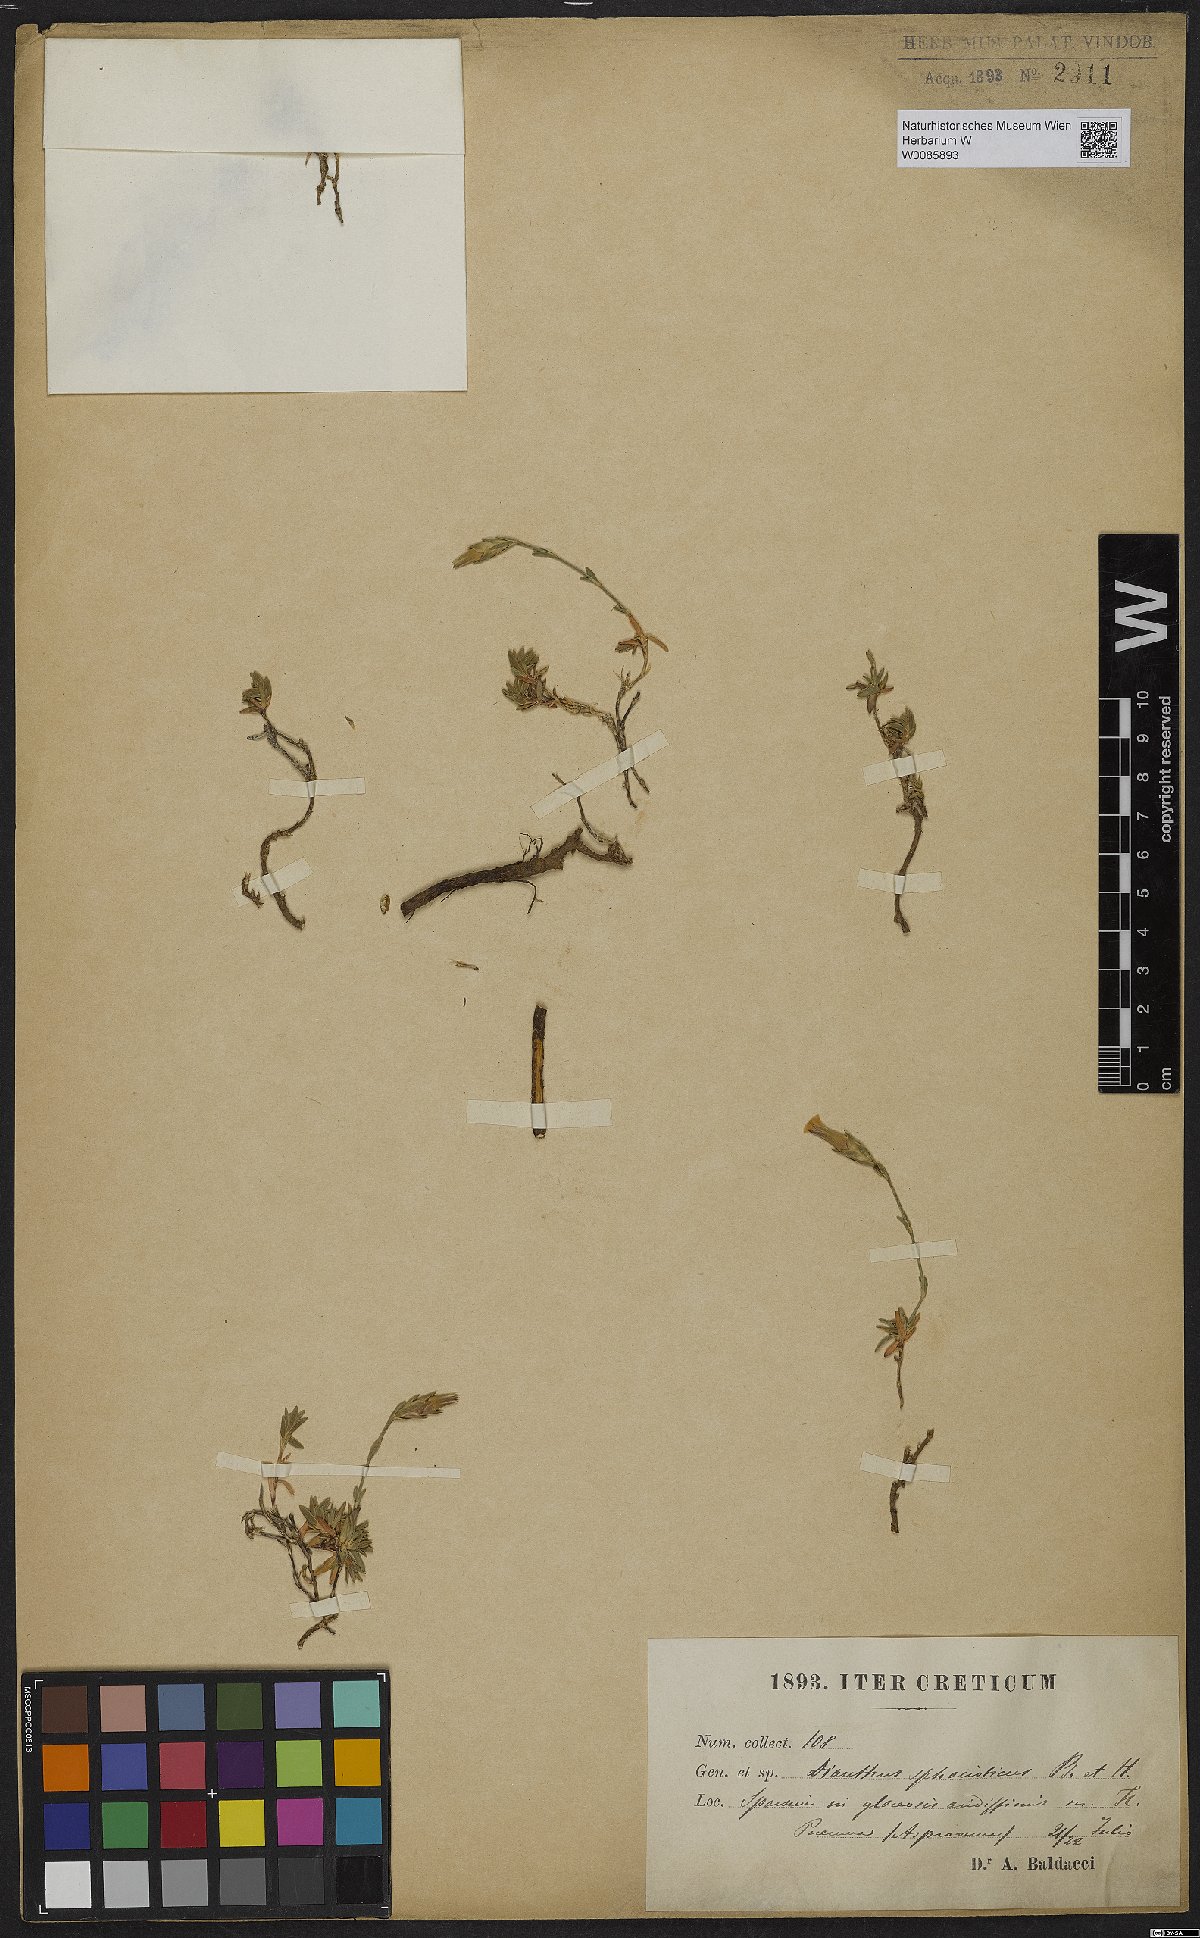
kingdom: Plantae
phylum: Tracheophyta
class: Magnoliopsida
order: Caryophyllales
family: Caryophyllaceae
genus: Dianthus
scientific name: Dianthus sphacioticus
